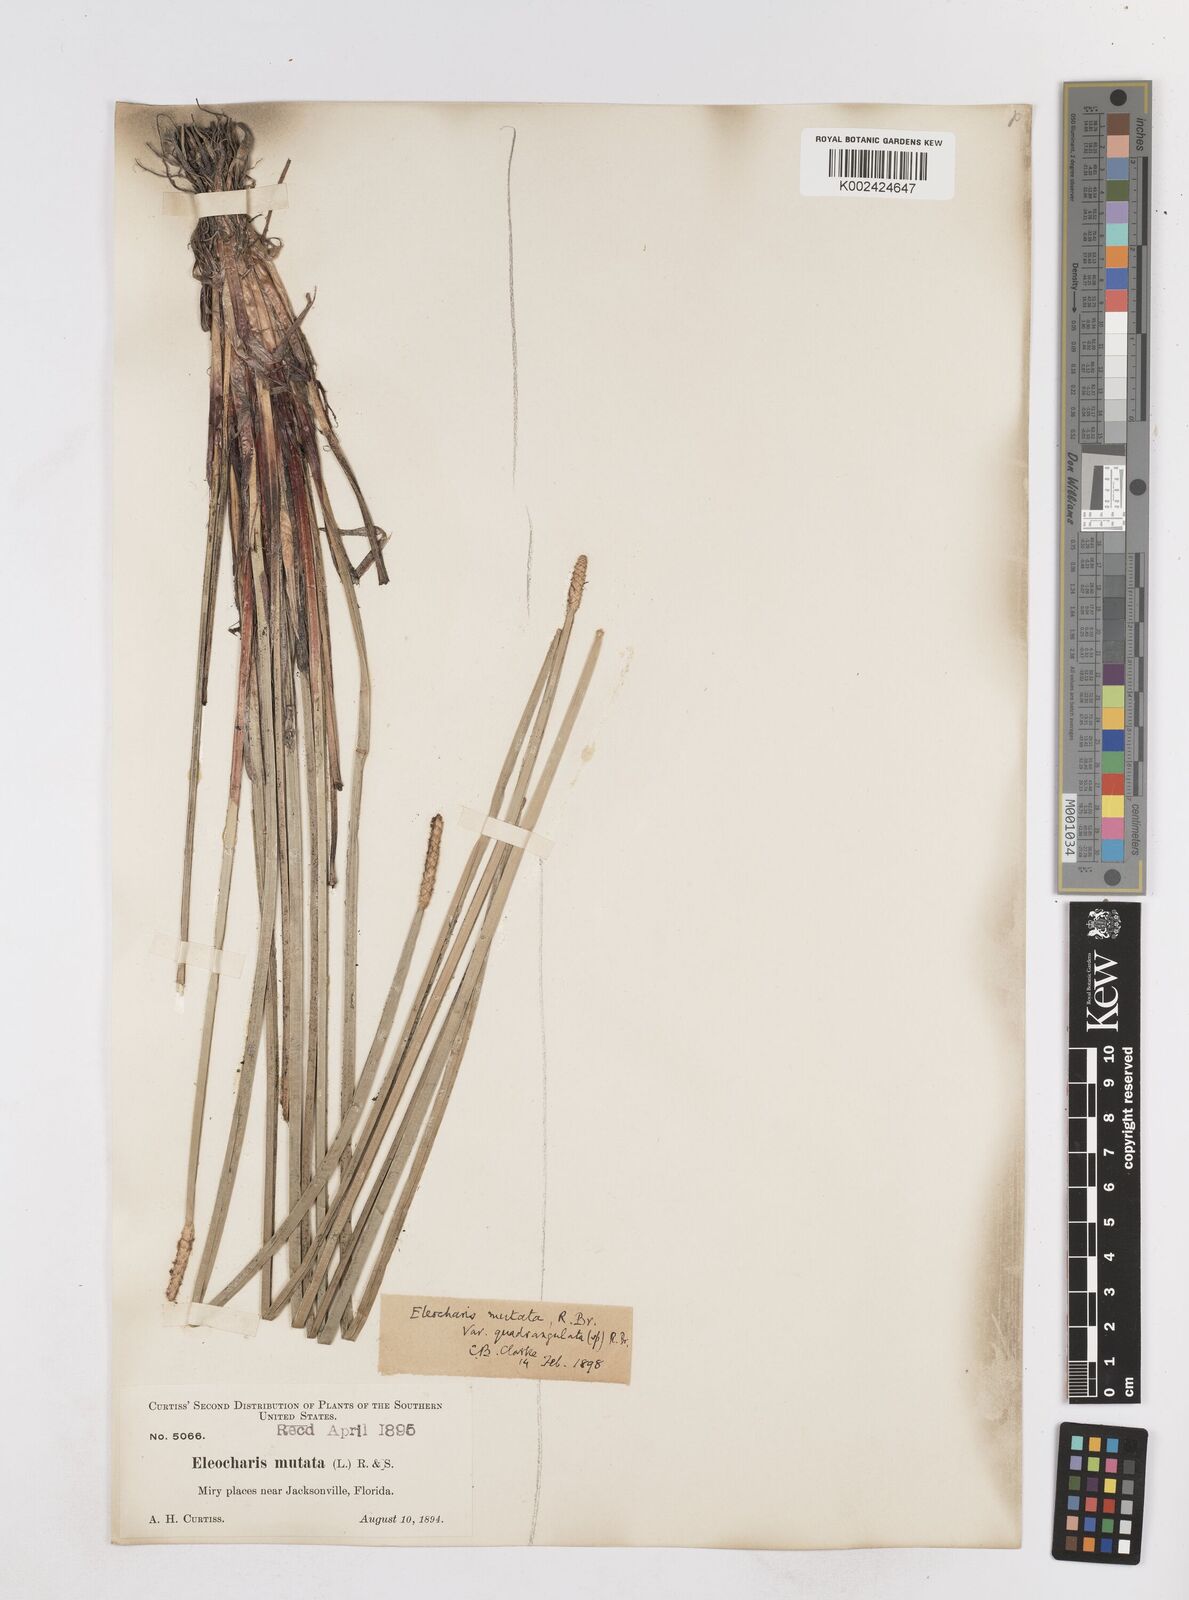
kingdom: Plantae
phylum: Tracheophyta
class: Liliopsida
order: Poales
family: Cyperaceae
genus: Eleocharis
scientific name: Eleocharis quadrangulata
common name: Square-stem spike-rush
